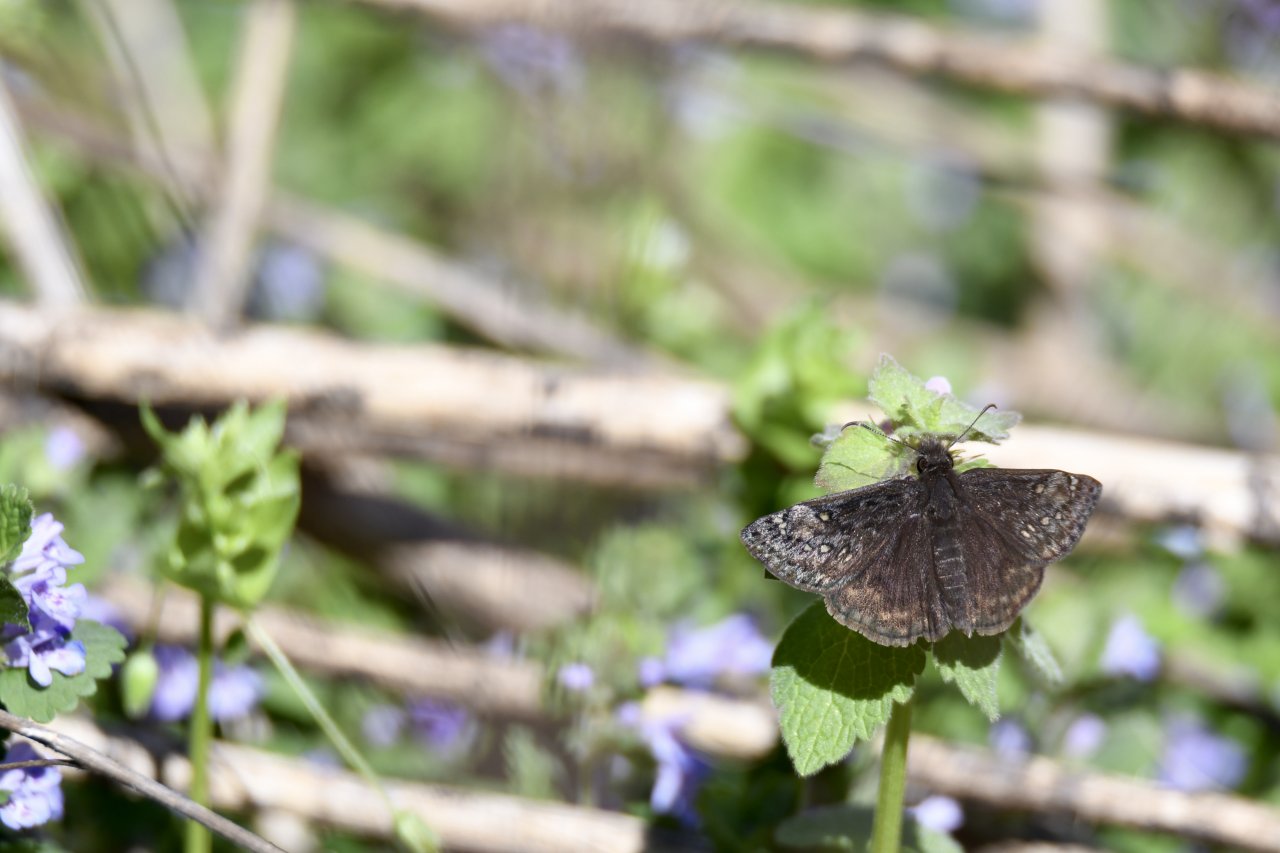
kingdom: Animalia
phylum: Arthropoda
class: Insecta
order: Lepidoptera
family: Hesperiidae
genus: Gesta
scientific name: Gesta
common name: Juvenal's Duskywing
